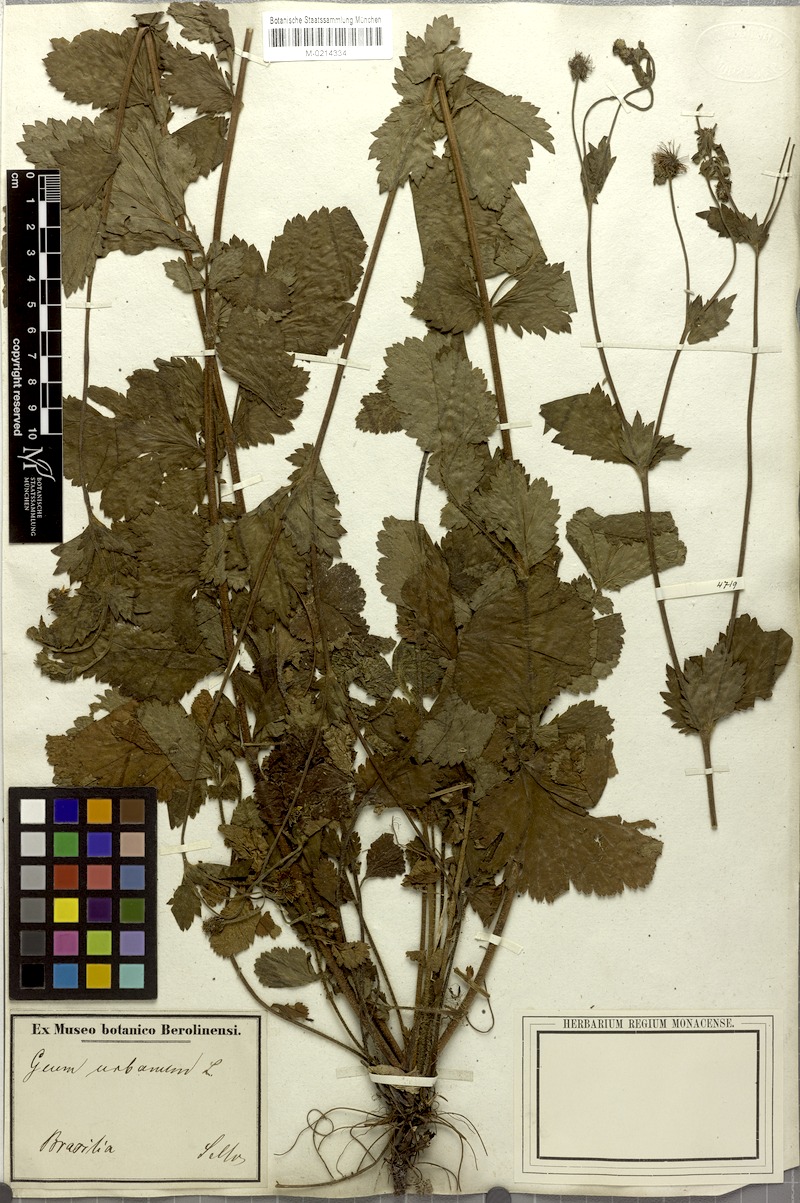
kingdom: Plantae
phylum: Tracheophyta
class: Magnoliopsida
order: Rosales
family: Rosaceae
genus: Geum
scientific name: Geum urbanum
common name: Wood avens
